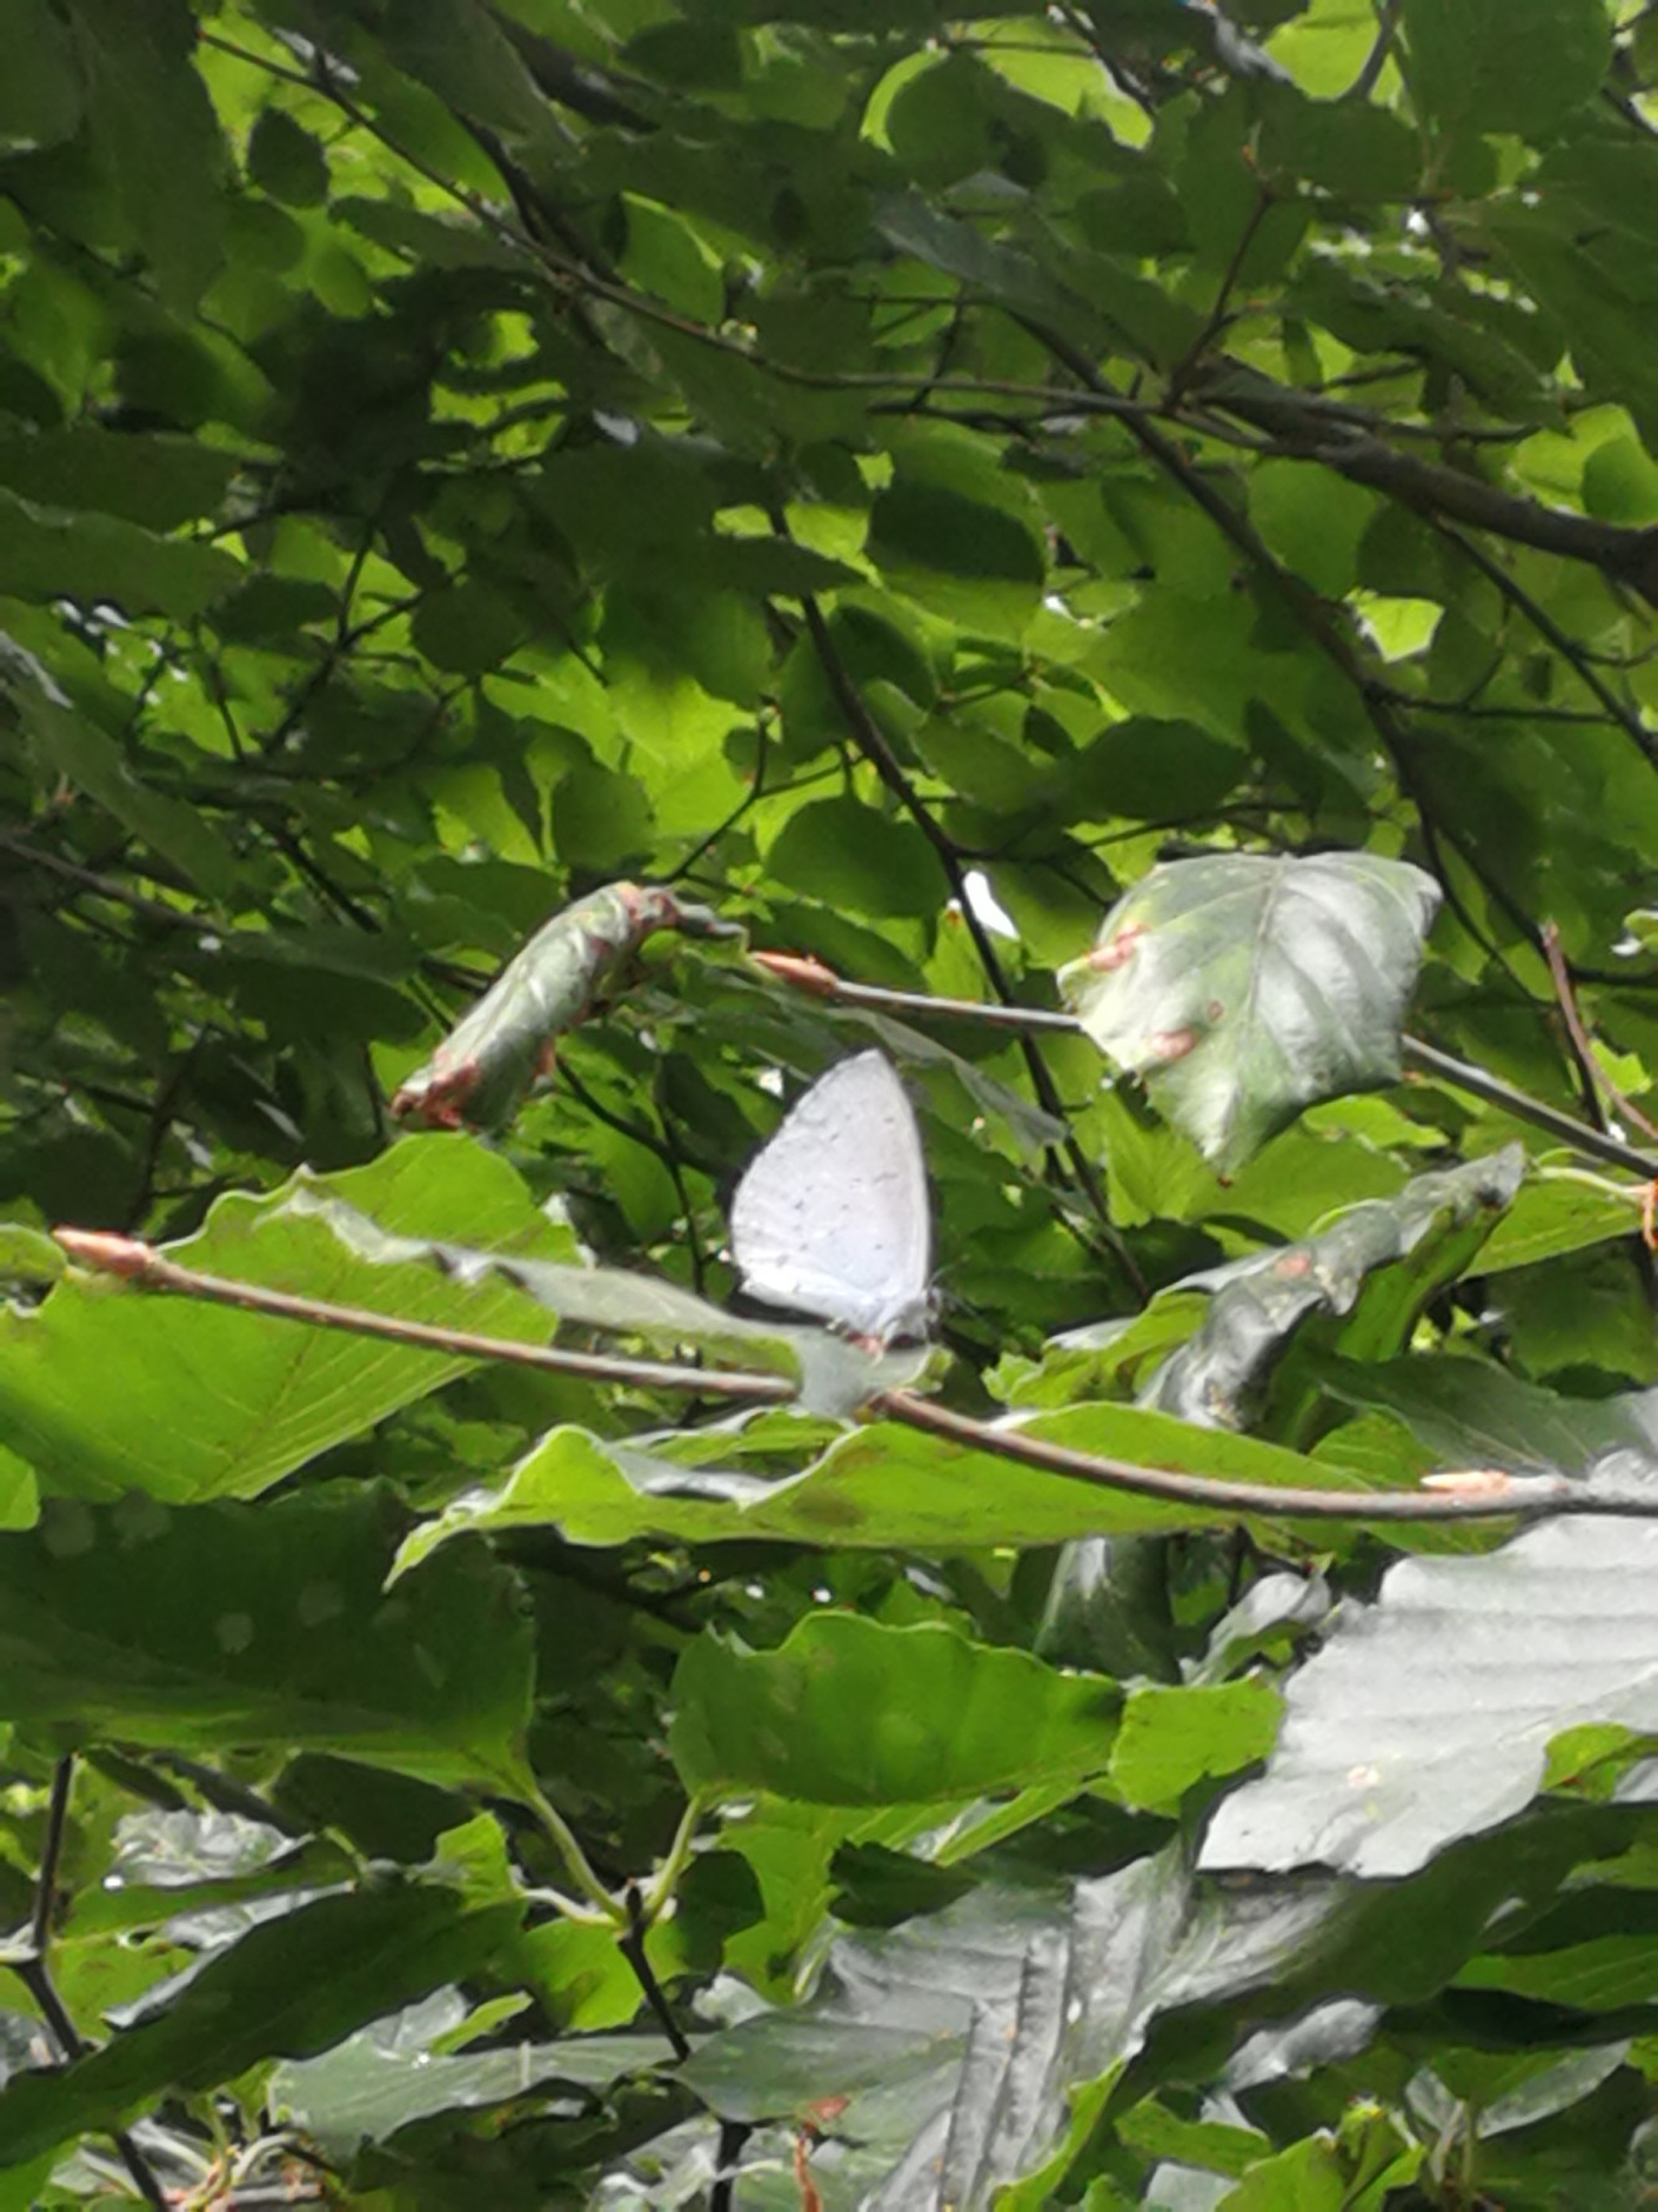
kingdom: Animalia
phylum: Arthropoda
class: Insecta
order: Lepidoptera
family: Lycaenidae
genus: Celastrina
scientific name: Celastrina argiolus
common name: Skovblåfugl
